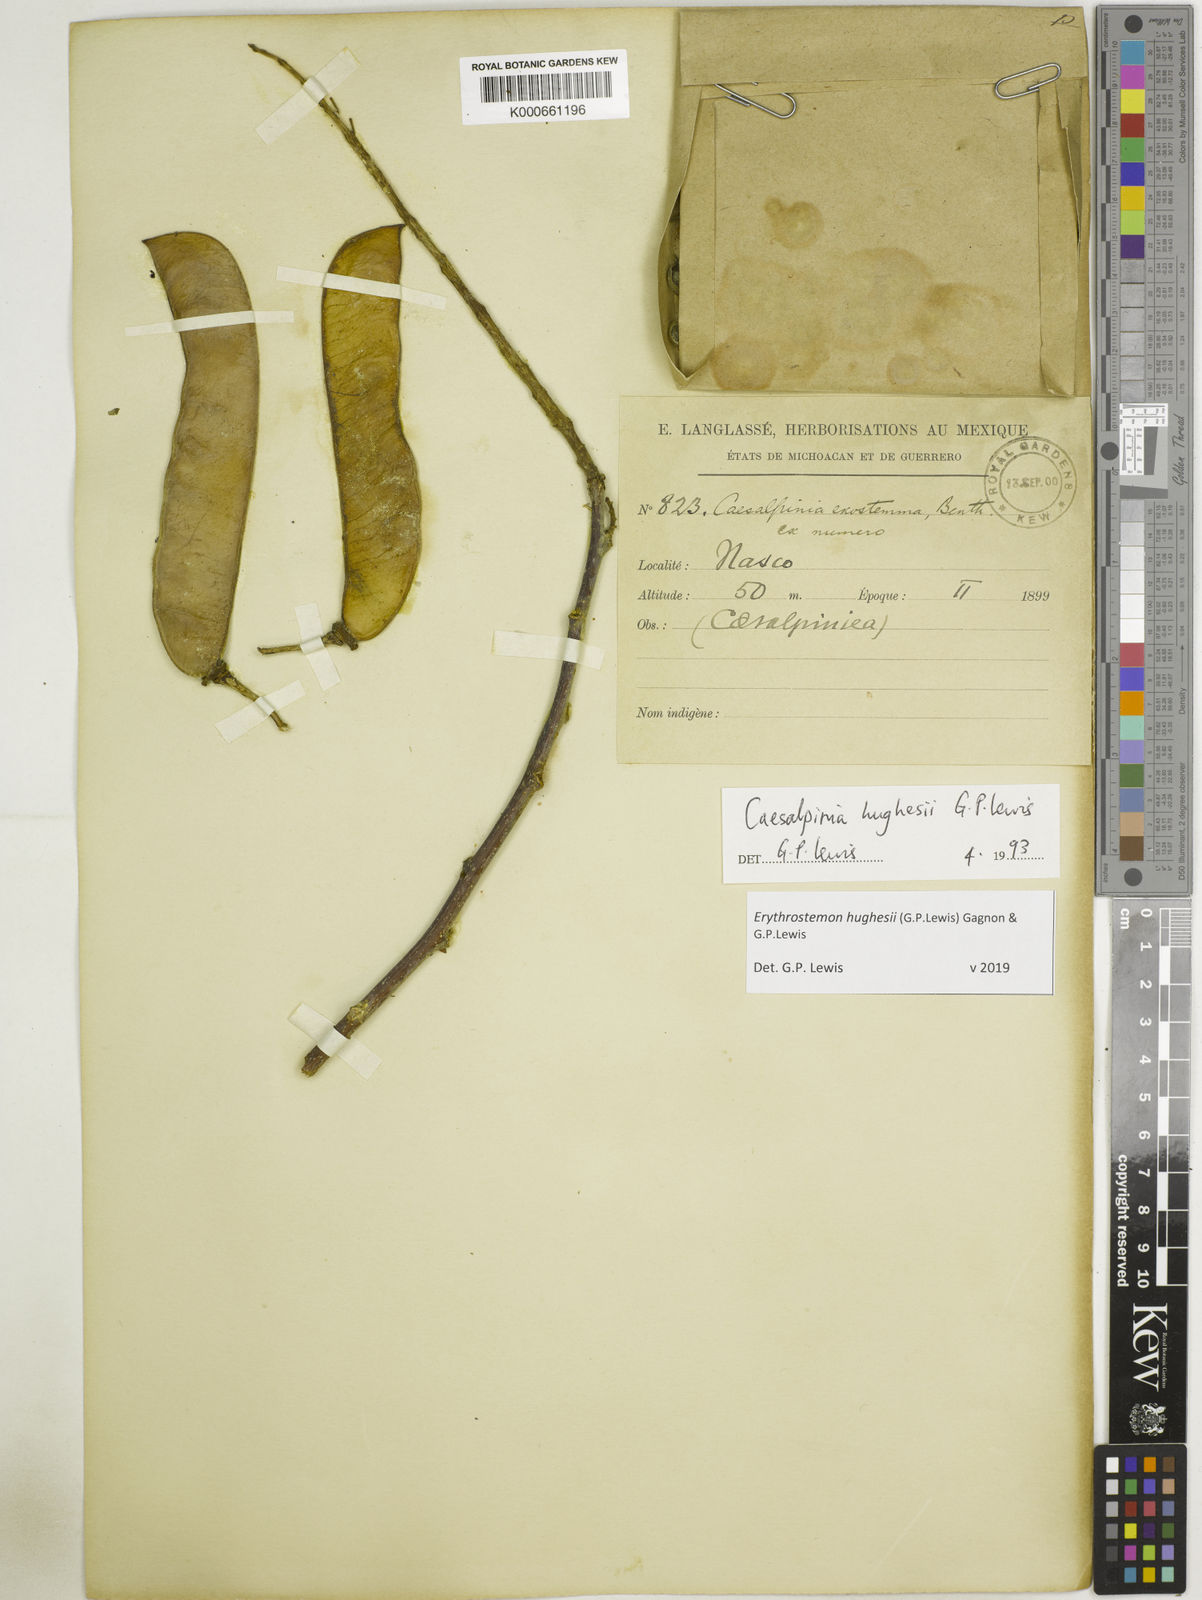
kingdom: Plantae
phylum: Tracheophyta
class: Magnoliopsida
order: Fabales
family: Fabaceae
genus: Erythrostemon
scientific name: Erythrostemon hughesii
